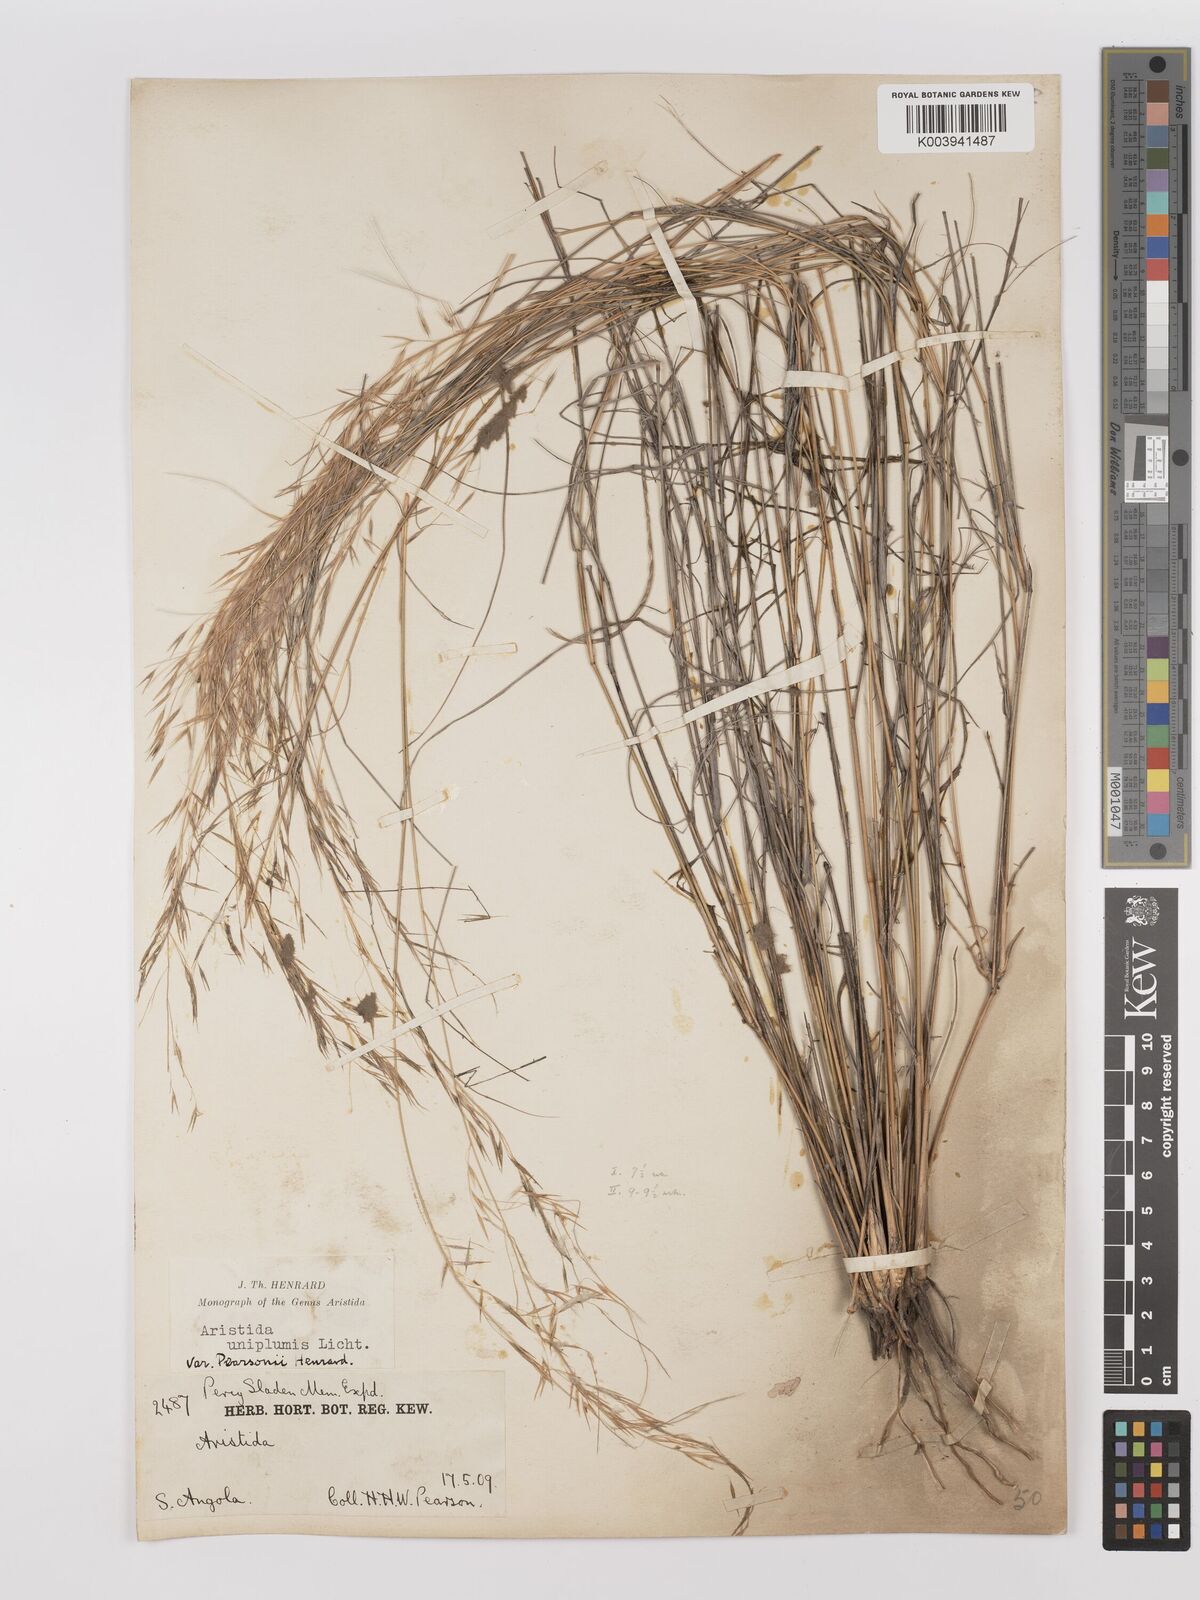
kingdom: Plantae
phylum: Tracheophyta
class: Liliopsida
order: Poales
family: Poaceae
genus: Stipagrostis
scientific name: Stipagrostis uniplumis
